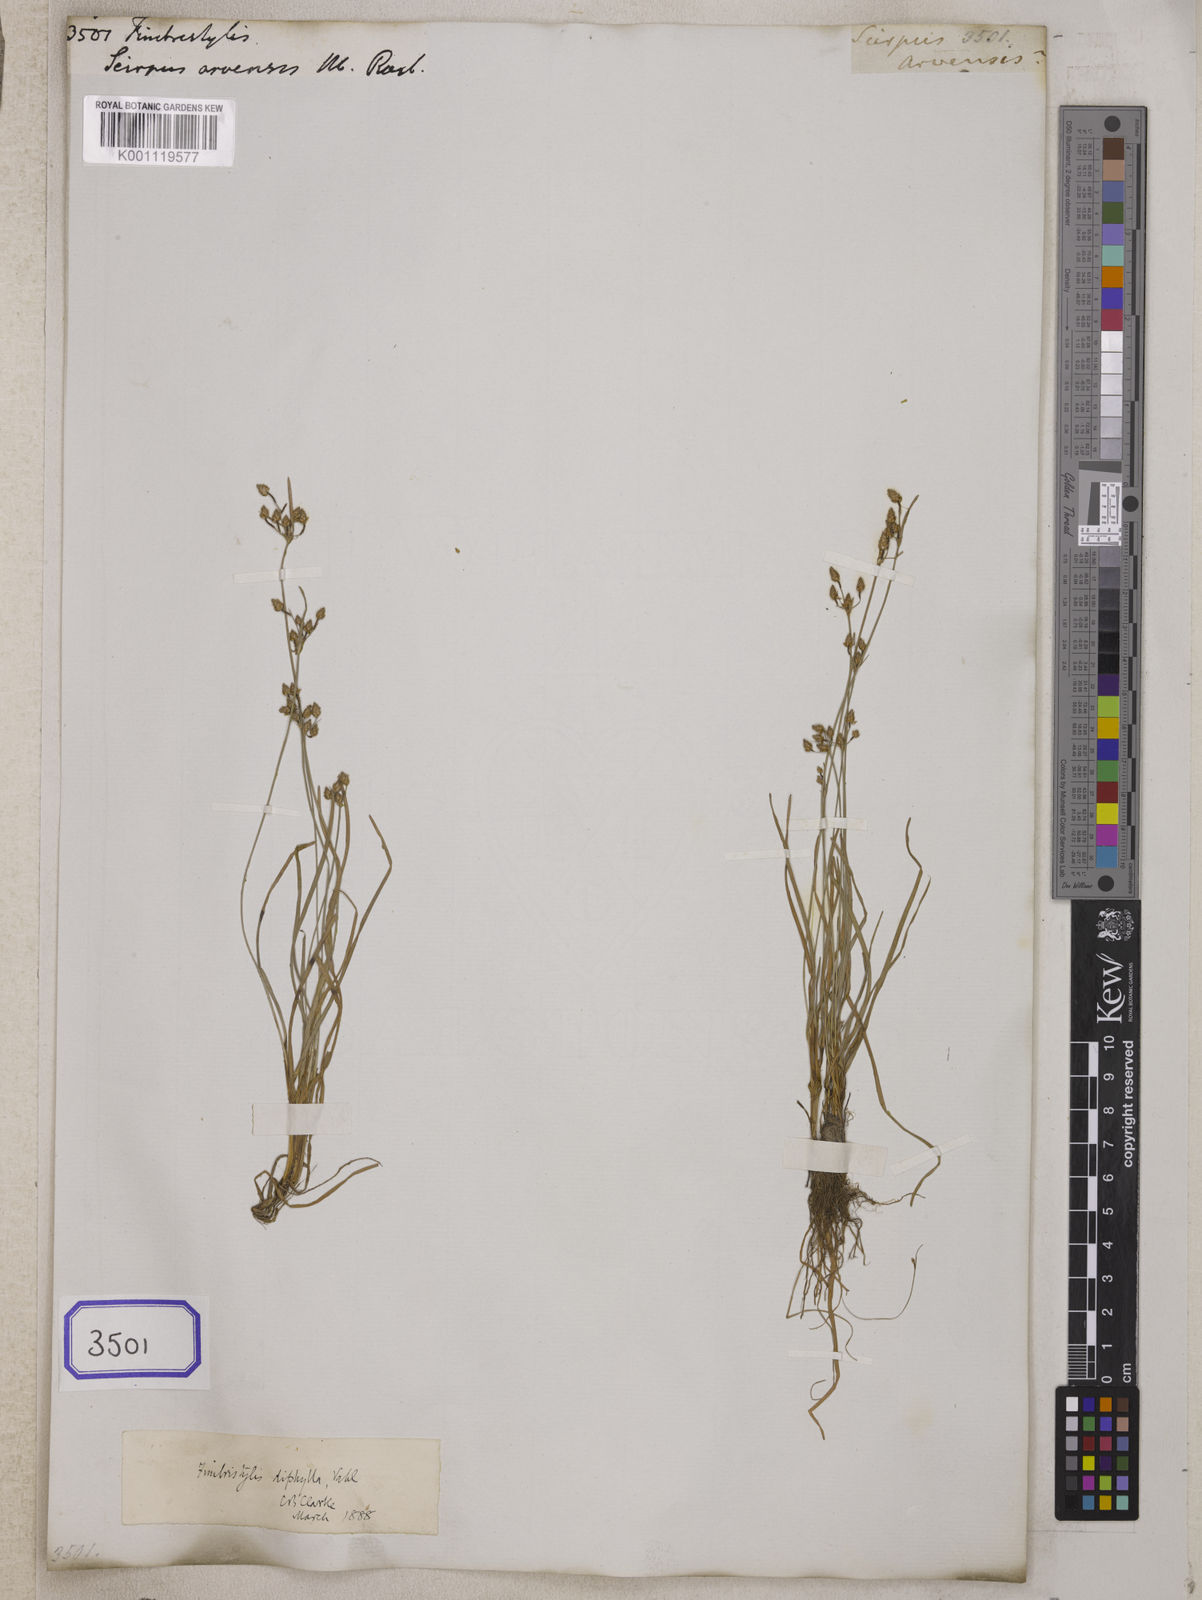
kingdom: Plantae
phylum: Tracheophyta
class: Liliopsida
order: Poales
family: Cyperaceae
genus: Fimbristylis
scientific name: Fimbristylis
